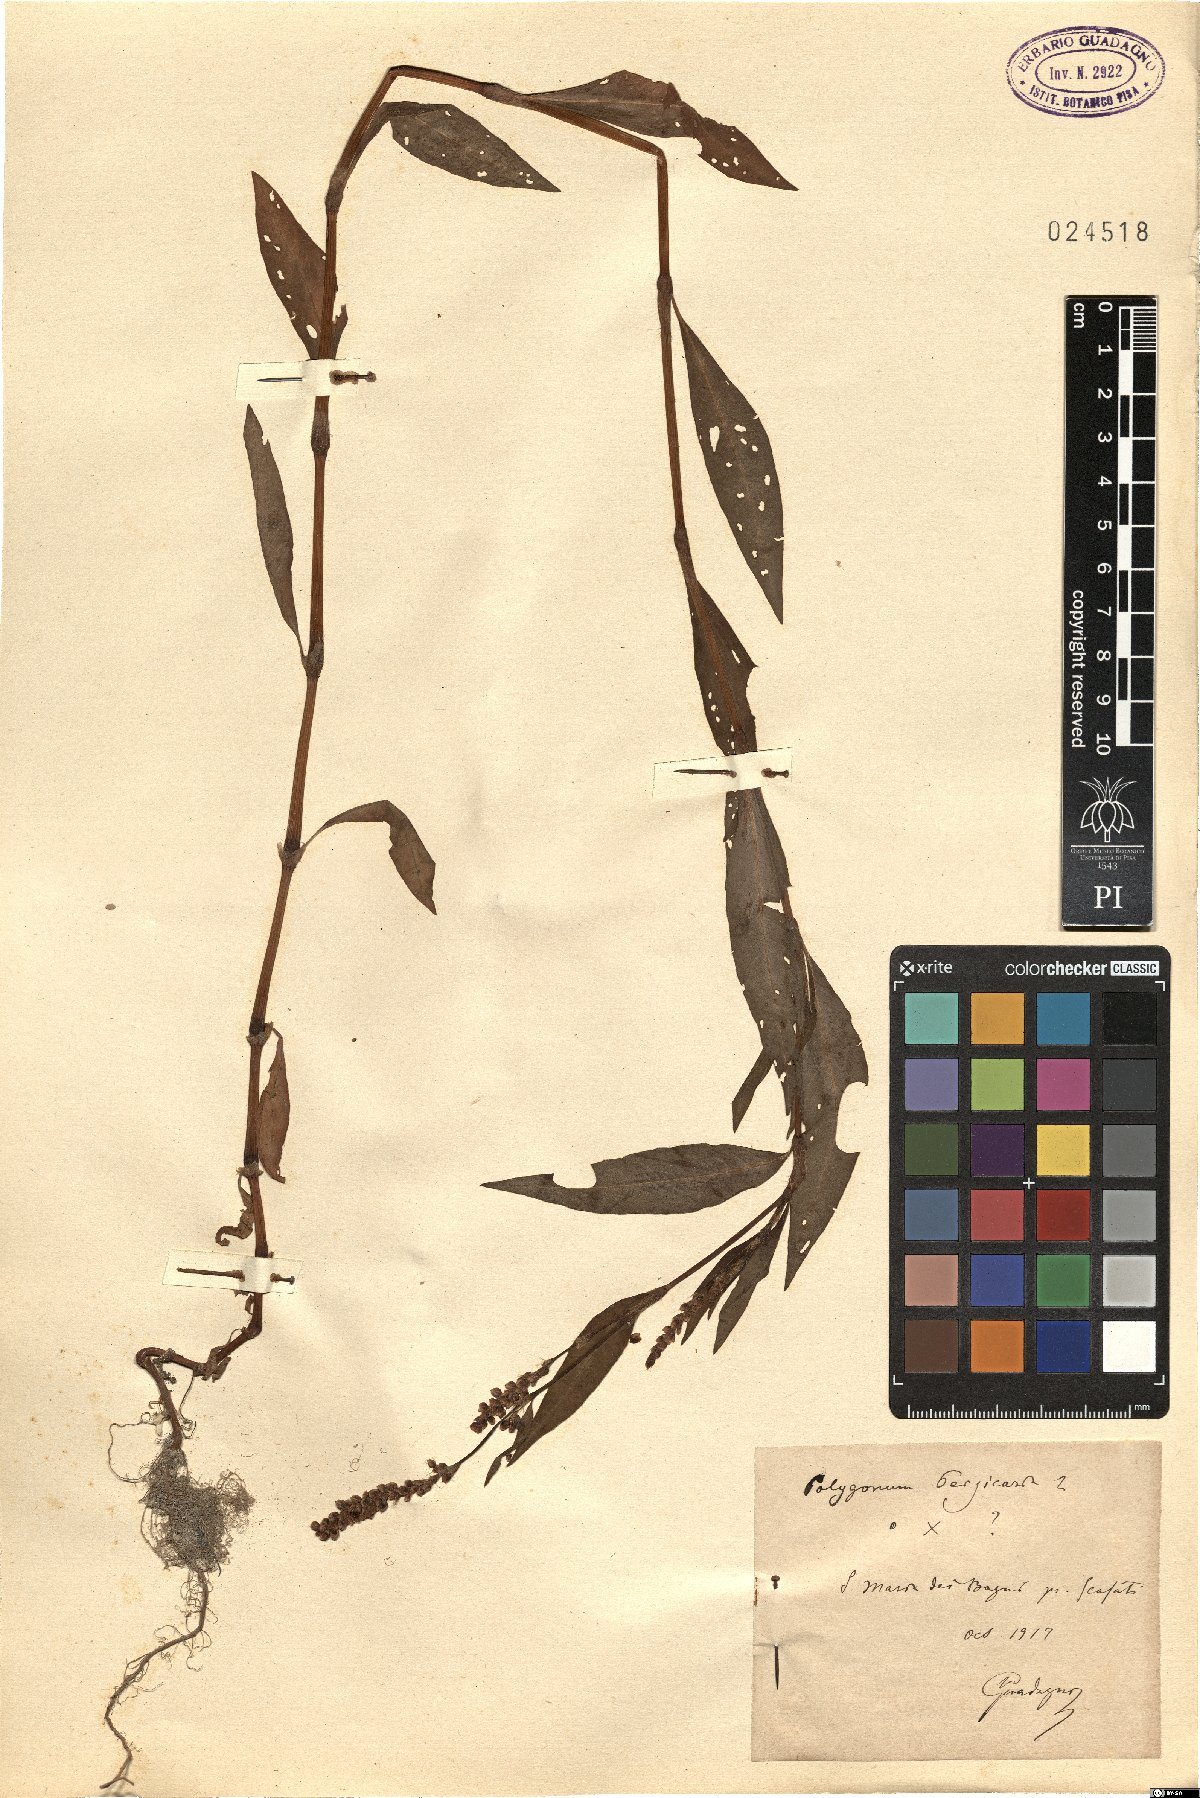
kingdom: Plantae
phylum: Tracheophyta
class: Magnoliopsida
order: Caryophyllales
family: Polygonaceae
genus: Persicaria
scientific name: Persicaria maculosa
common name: Redshank
